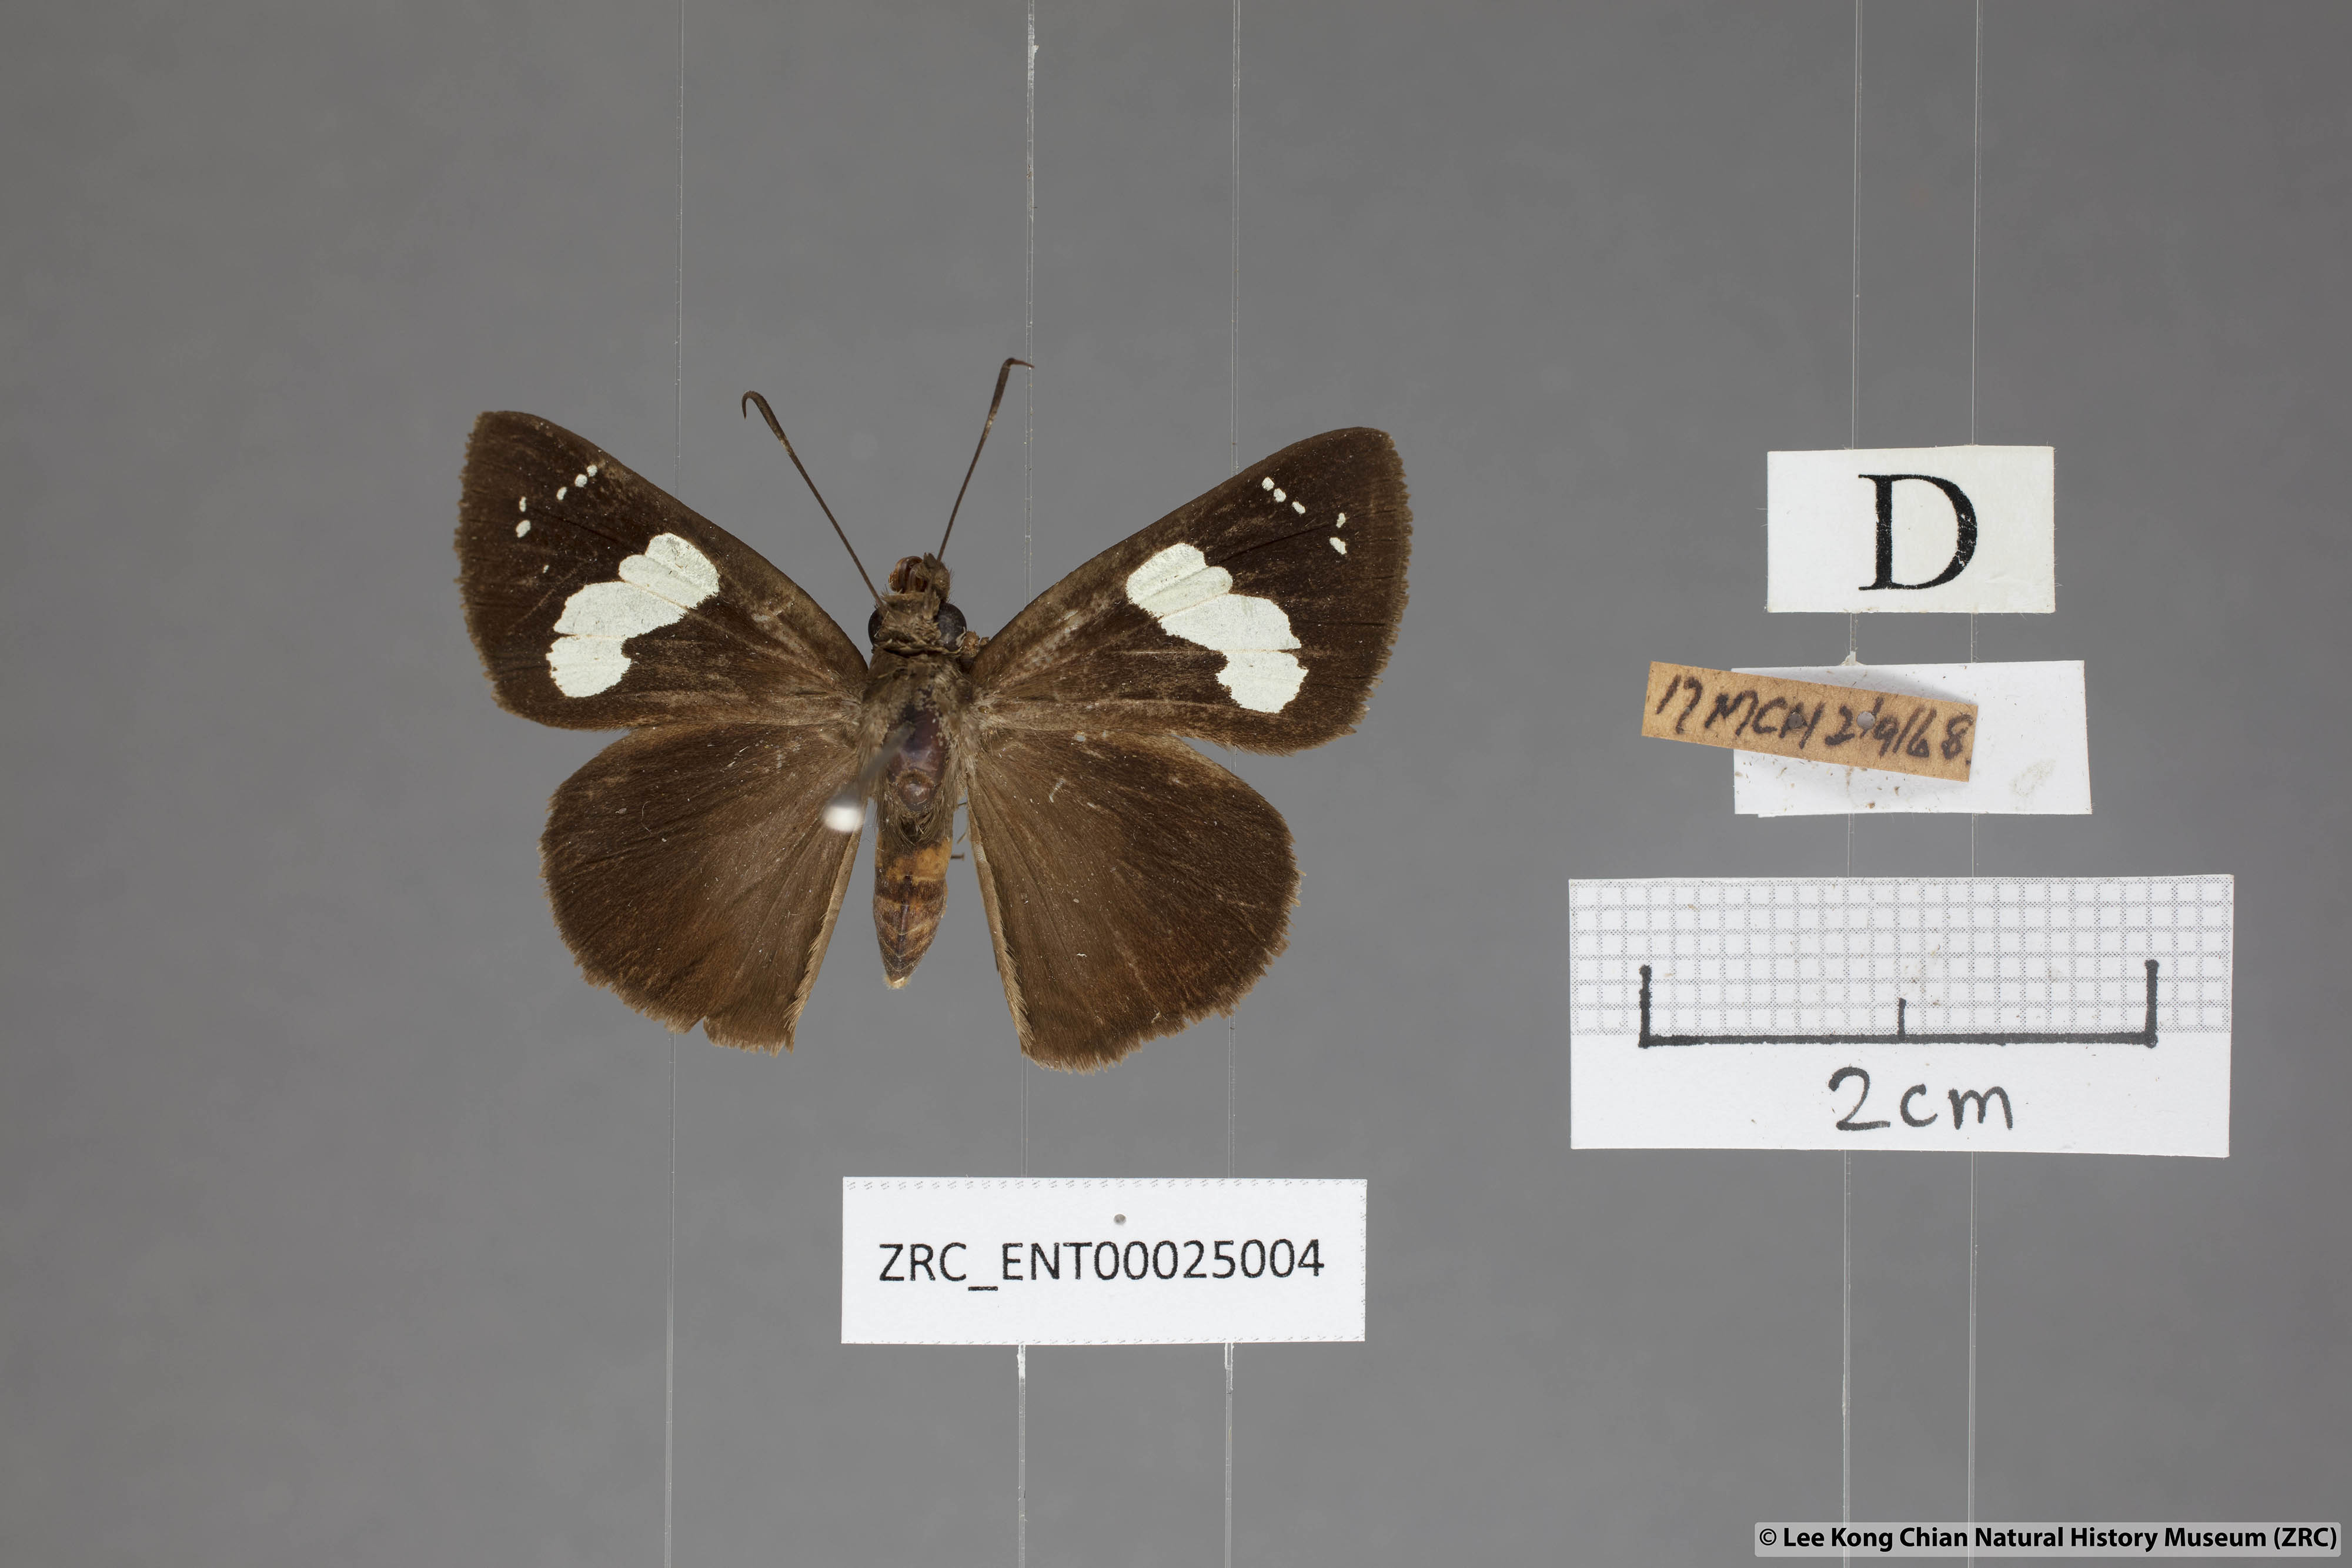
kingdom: Animalia
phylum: Arthropoda
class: Insecta
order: Lepidoptera
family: Hesperiidae
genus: Notocrypta
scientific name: Notocrypta curvifascia
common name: Restricted demon
